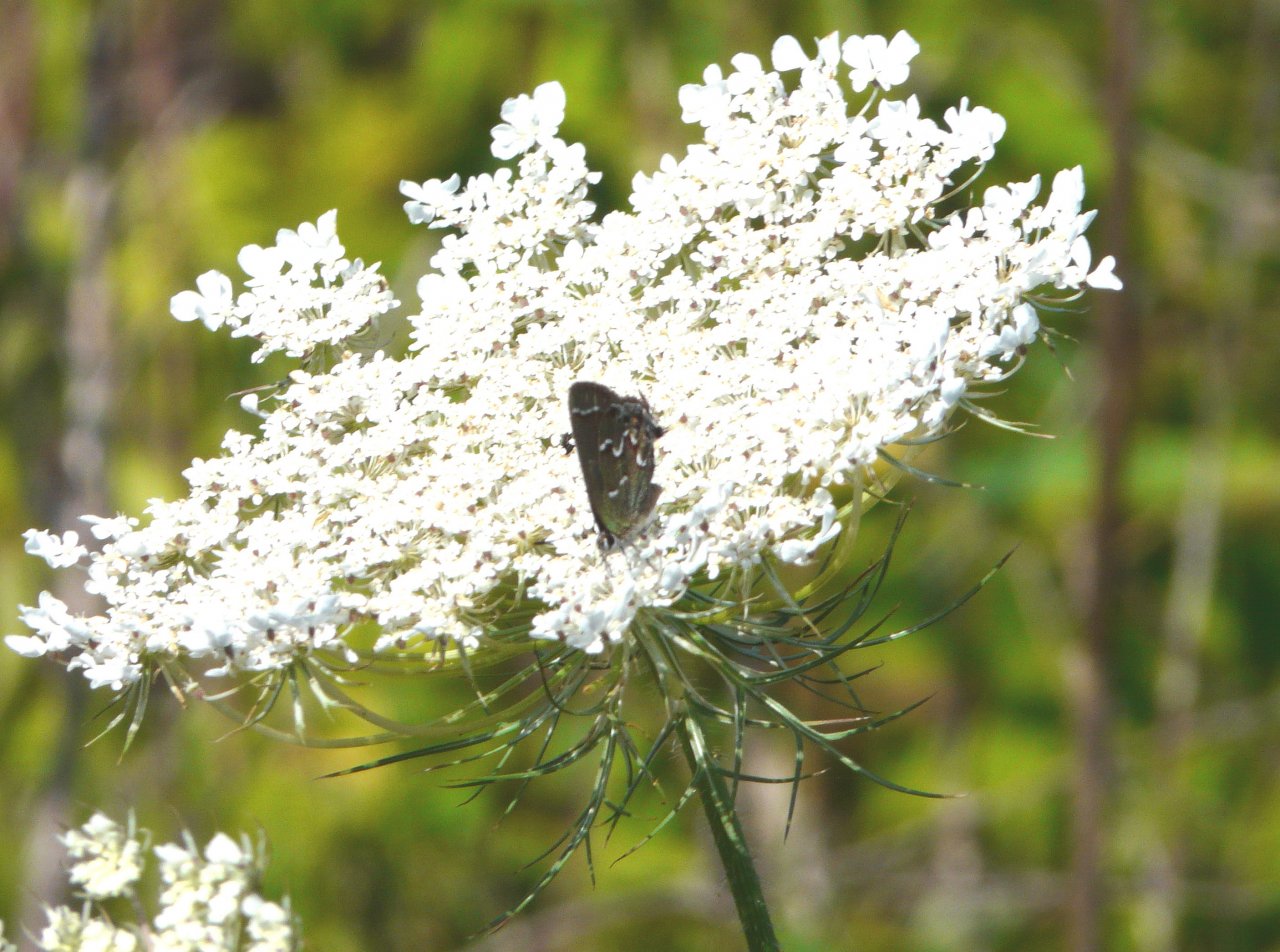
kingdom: Animalia
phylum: Arthropoda
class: Insecta
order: Lepidoptera
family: Lycaenidae
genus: Mitoura
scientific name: Mitoura gryneus
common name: Juniper Hairstreak
